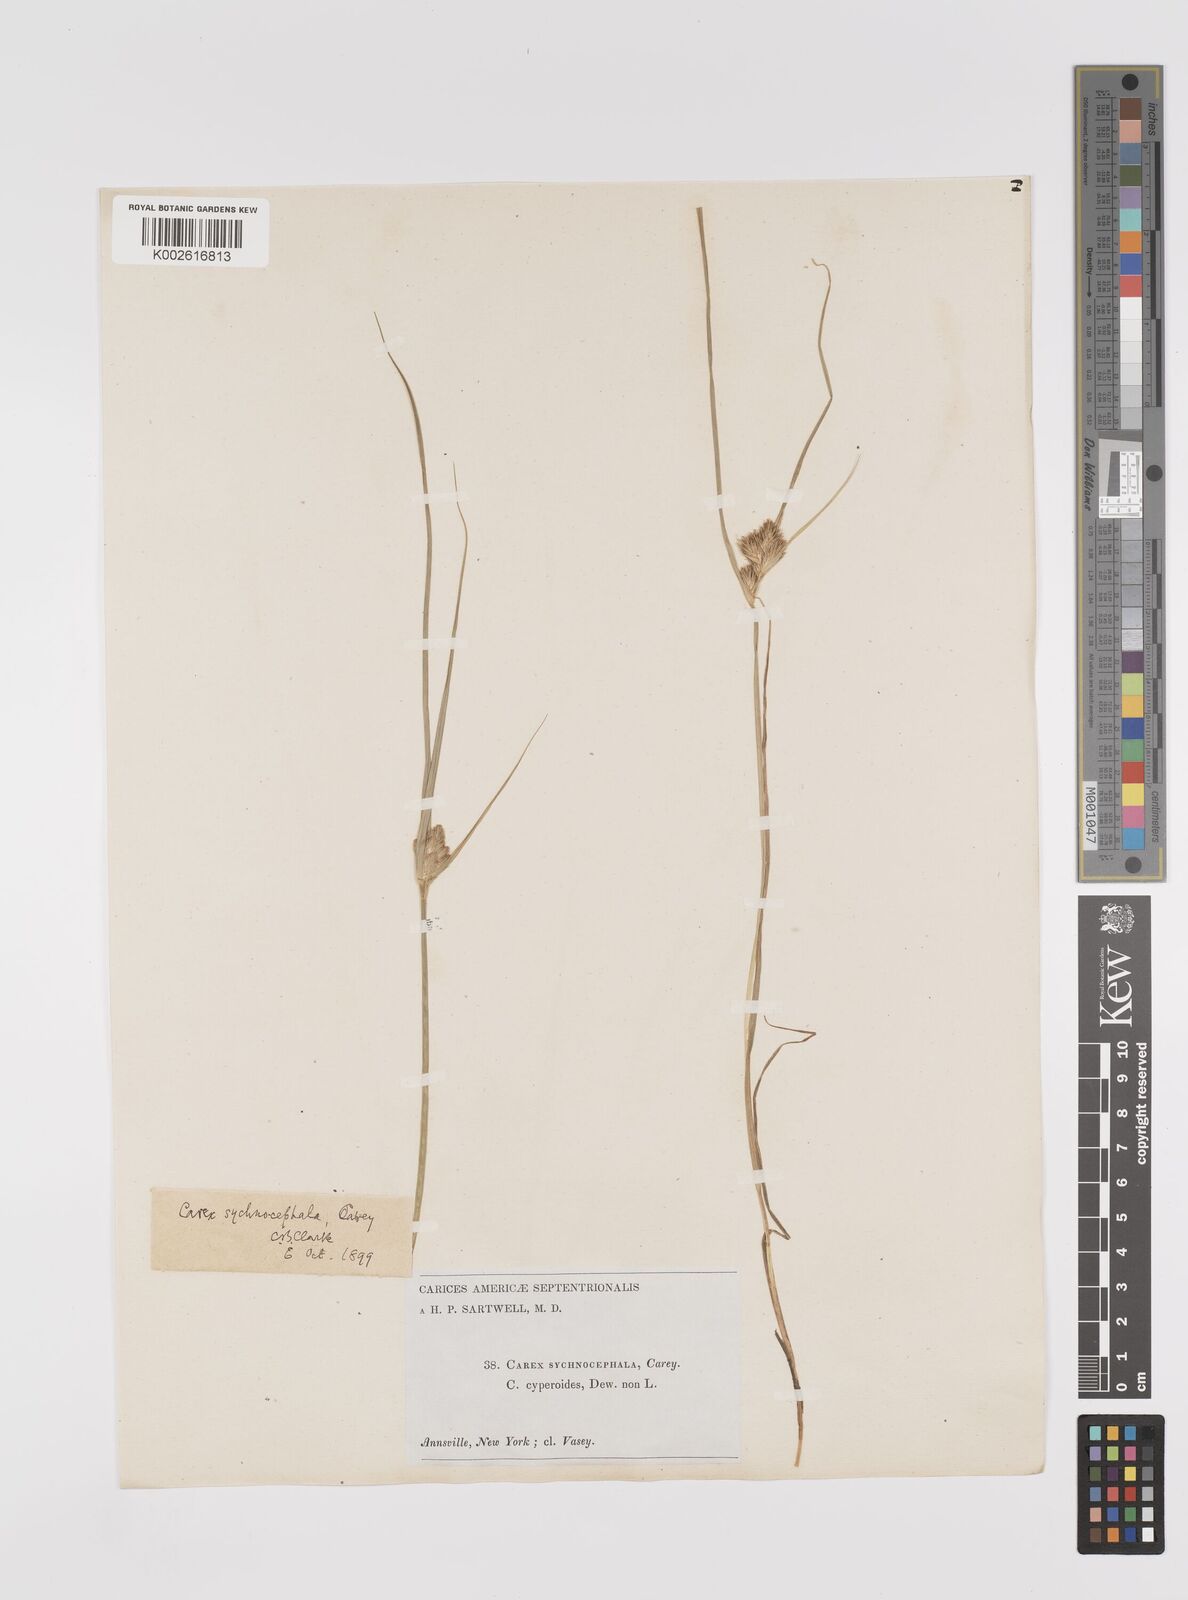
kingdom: Plantae
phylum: Tracheophyta
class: Liliopsida
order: Poales
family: Cyperaceae
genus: Carex
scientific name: Carex sychnocephala
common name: Dense long-beaked sedge
